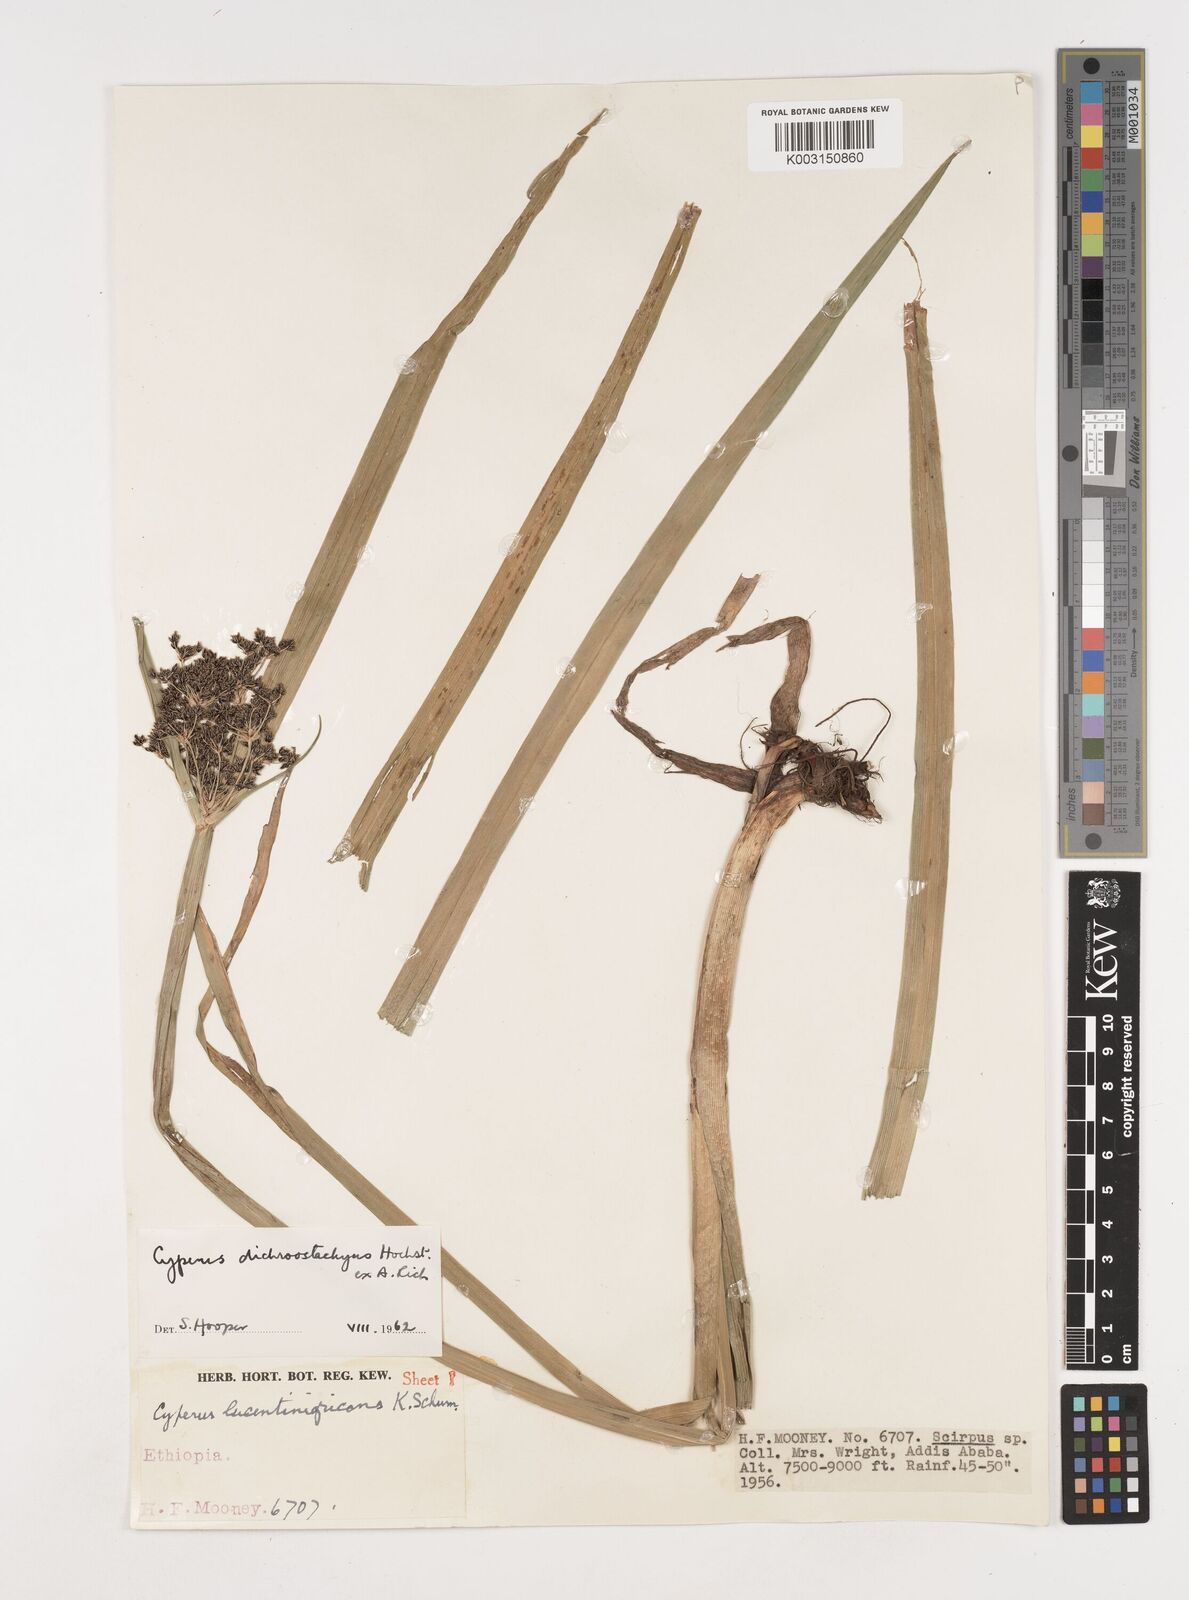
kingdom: Plantae
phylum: Tracheophyta
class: Liliopsida
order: Poales
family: Cyperaceae
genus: Cyperus
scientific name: Cyperus dichrostachyus
